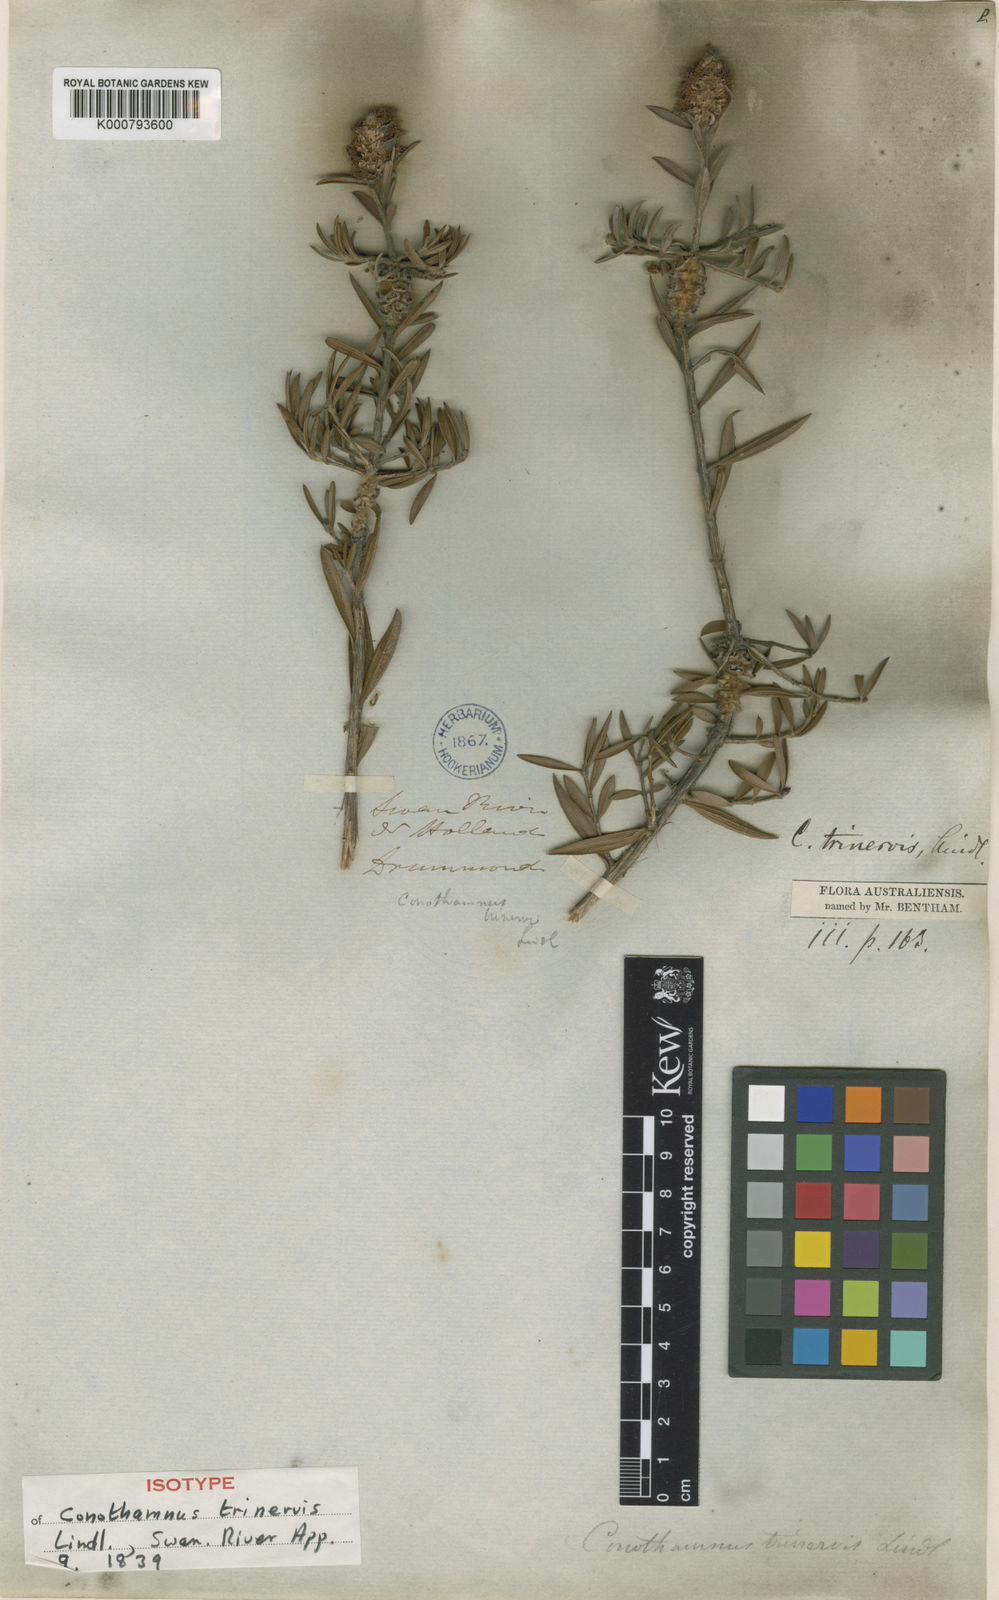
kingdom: Plantae
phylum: Tracheophyta
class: Magnoliopsida
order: Myrtales
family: Myrtaceae
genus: Melaleuca
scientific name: Melaleuca cowleyae
